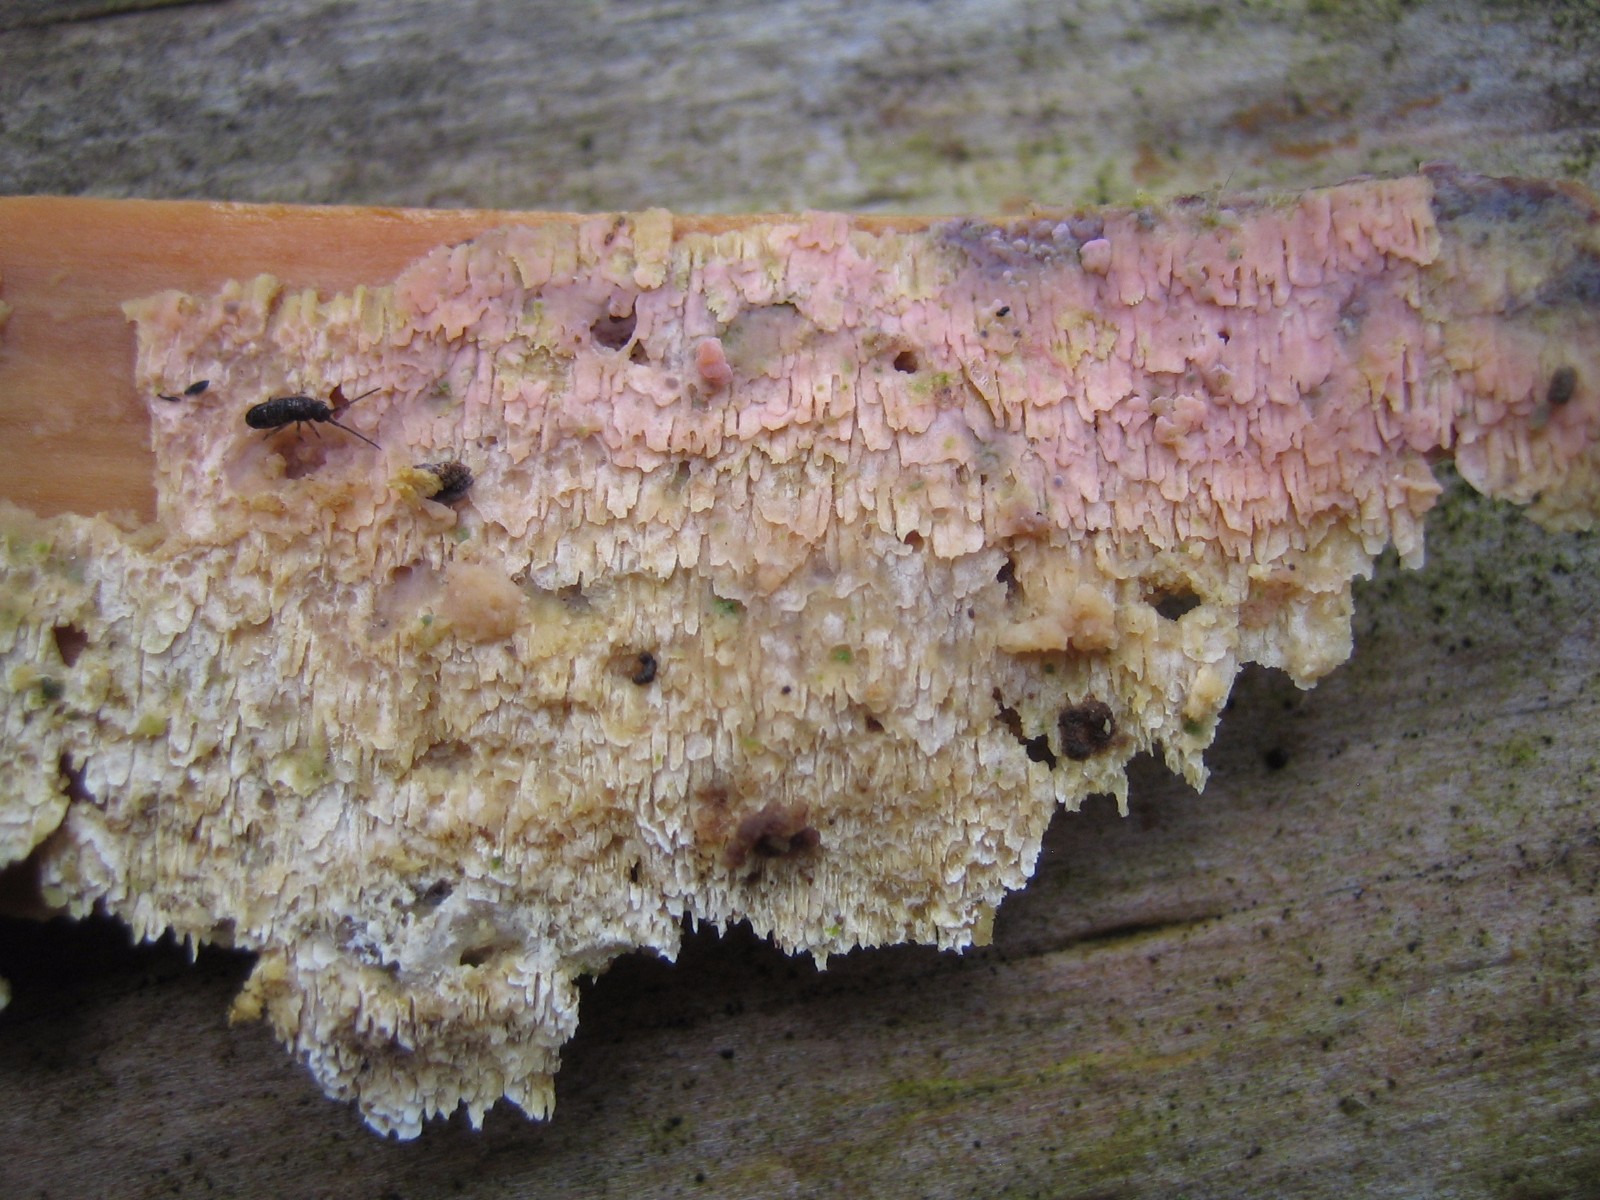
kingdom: Fungi
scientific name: Fungi
